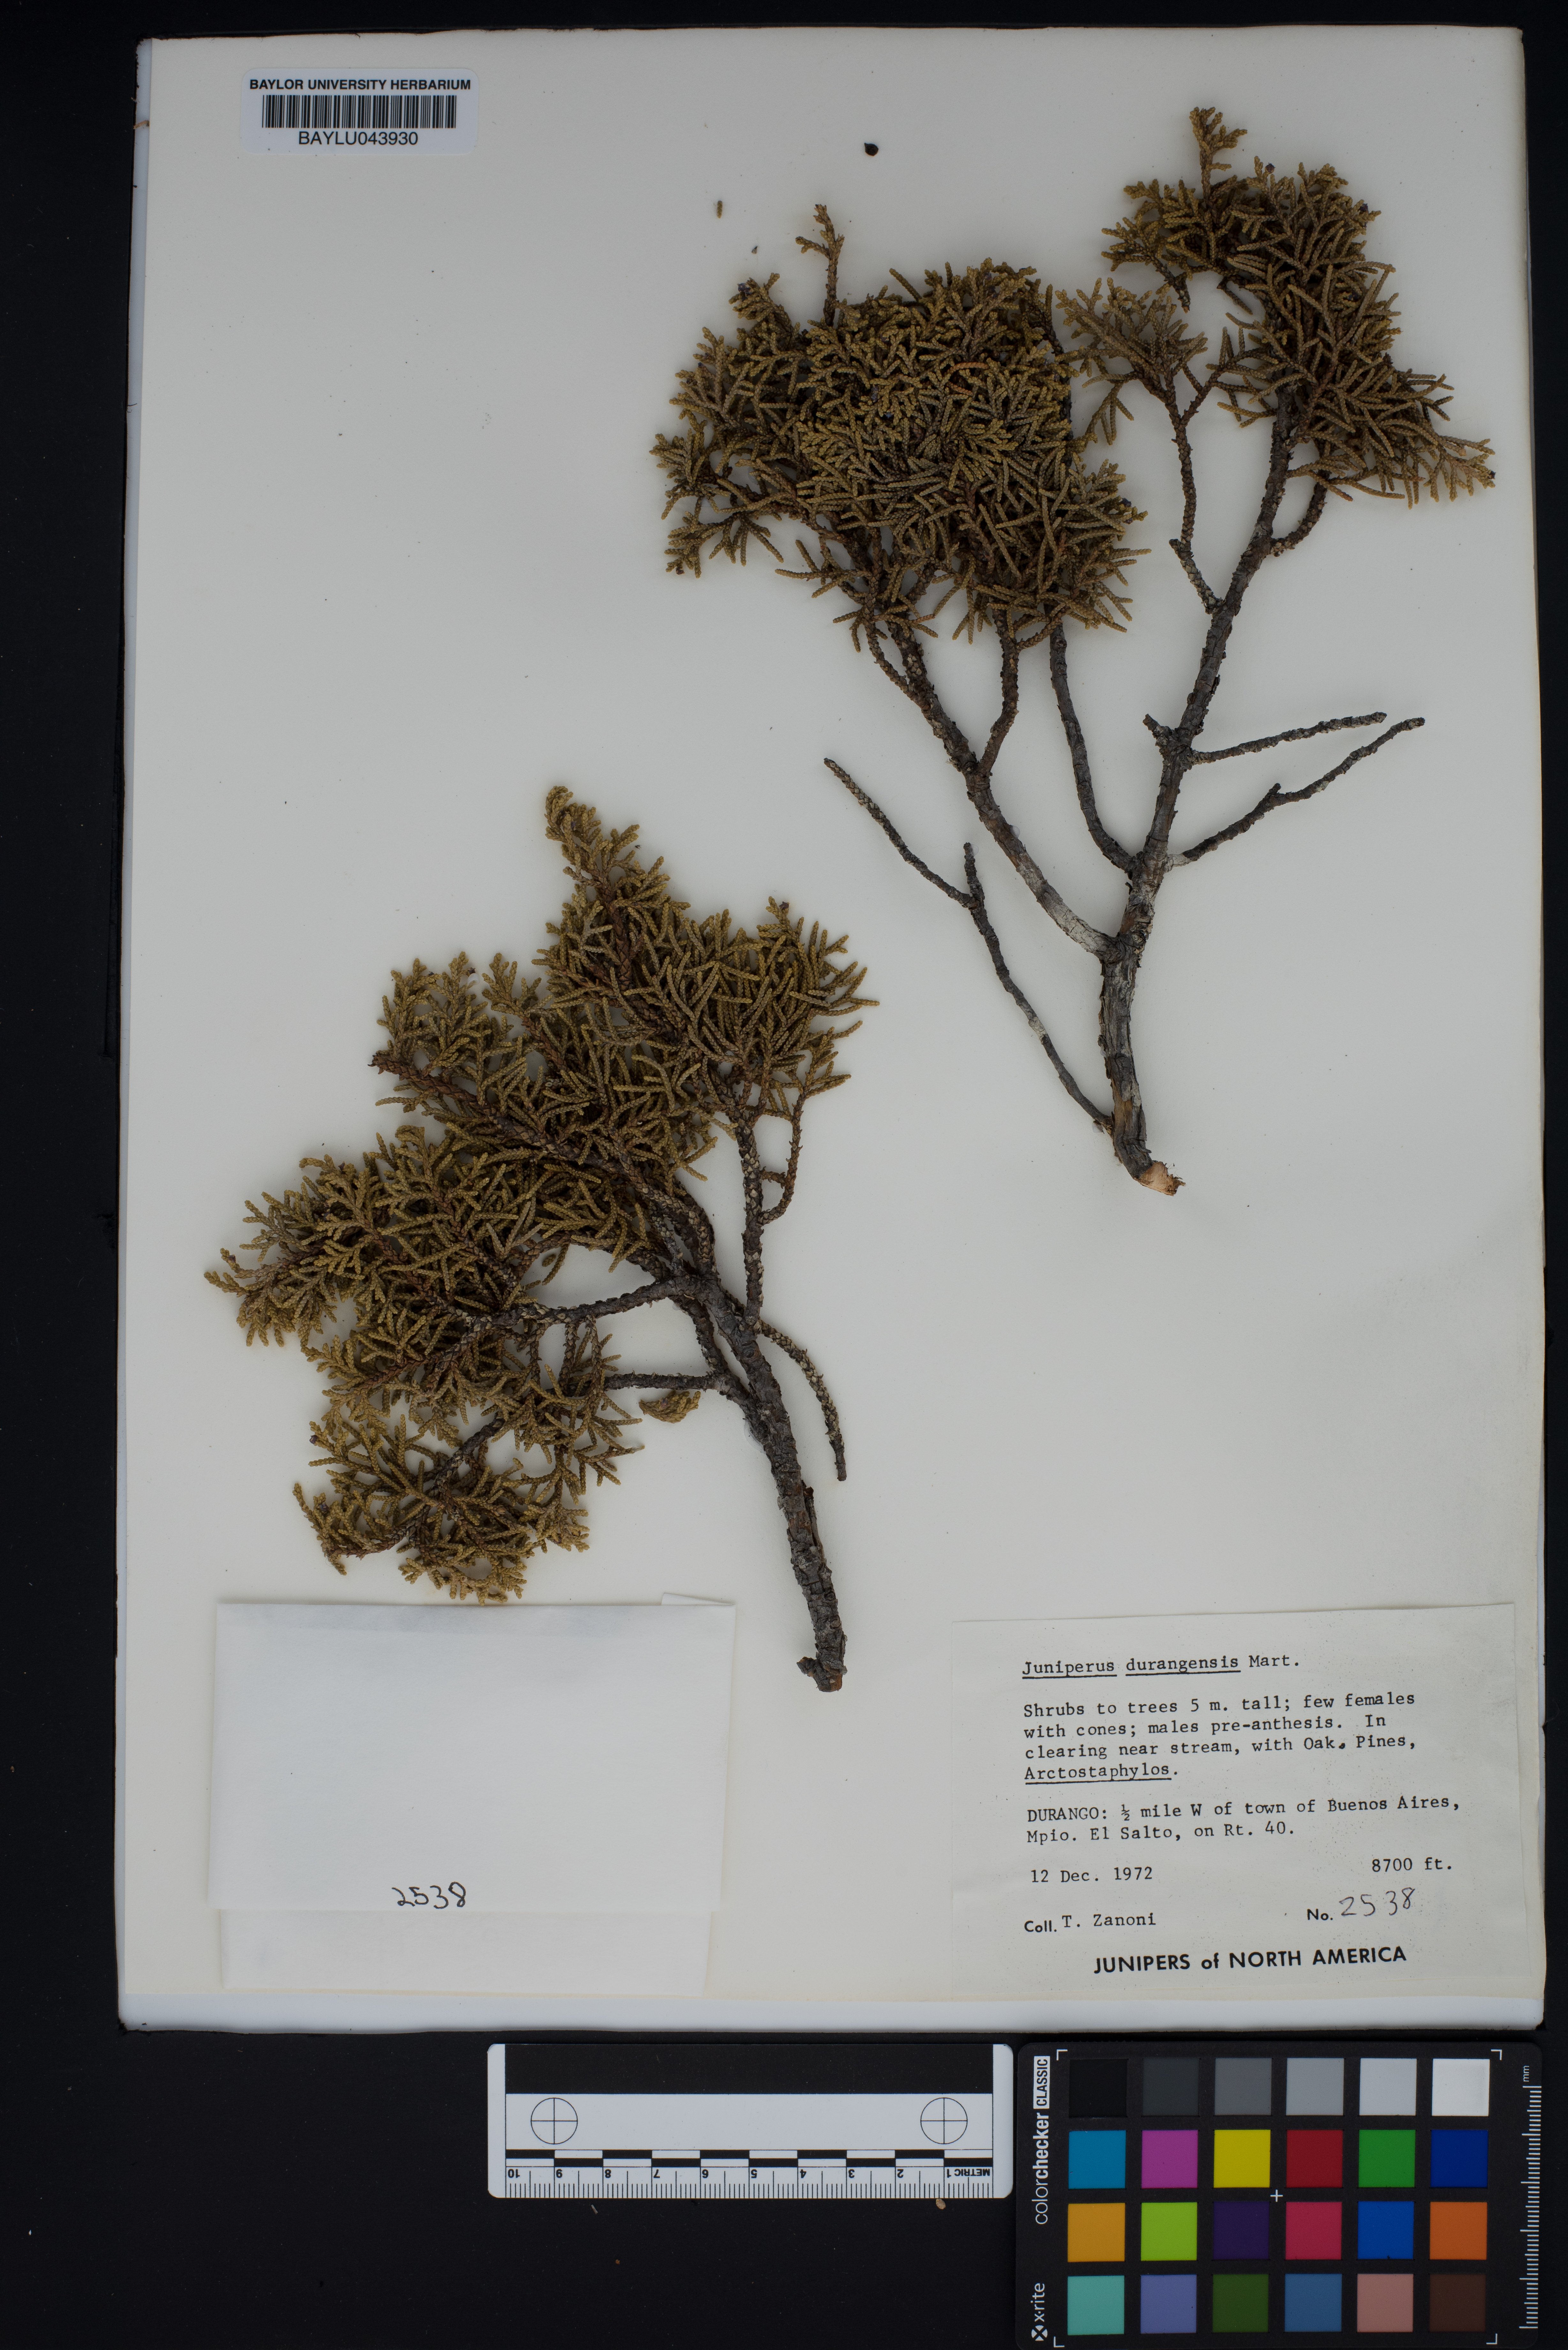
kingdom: Plantae
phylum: Tracheophyta
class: Pinopsida
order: Pinales
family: Cupressaceae
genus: Juniperus
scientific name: Juniperus durangensis
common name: Durango juniper
